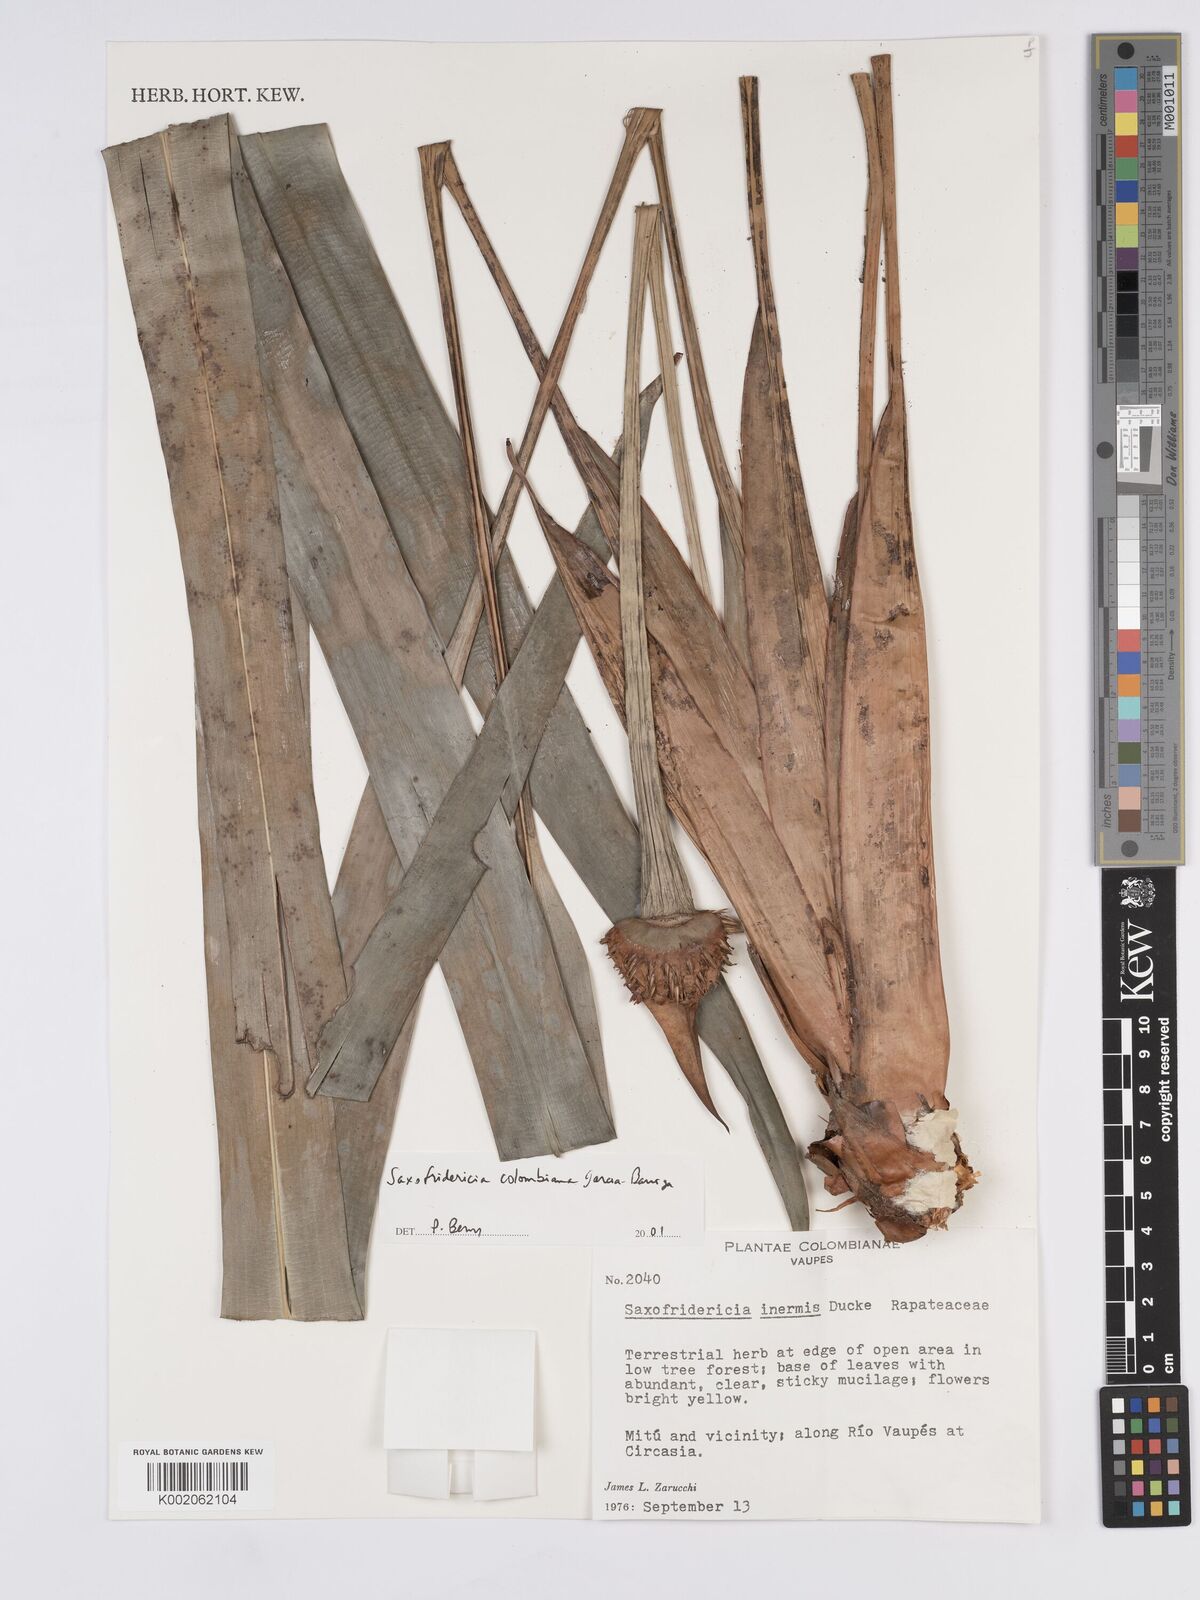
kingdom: Plantae
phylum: Tracheophyta
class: Liliopsida
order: Poales
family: Rapateaceae
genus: Saxofridericia
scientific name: Saxofridericia inermis
